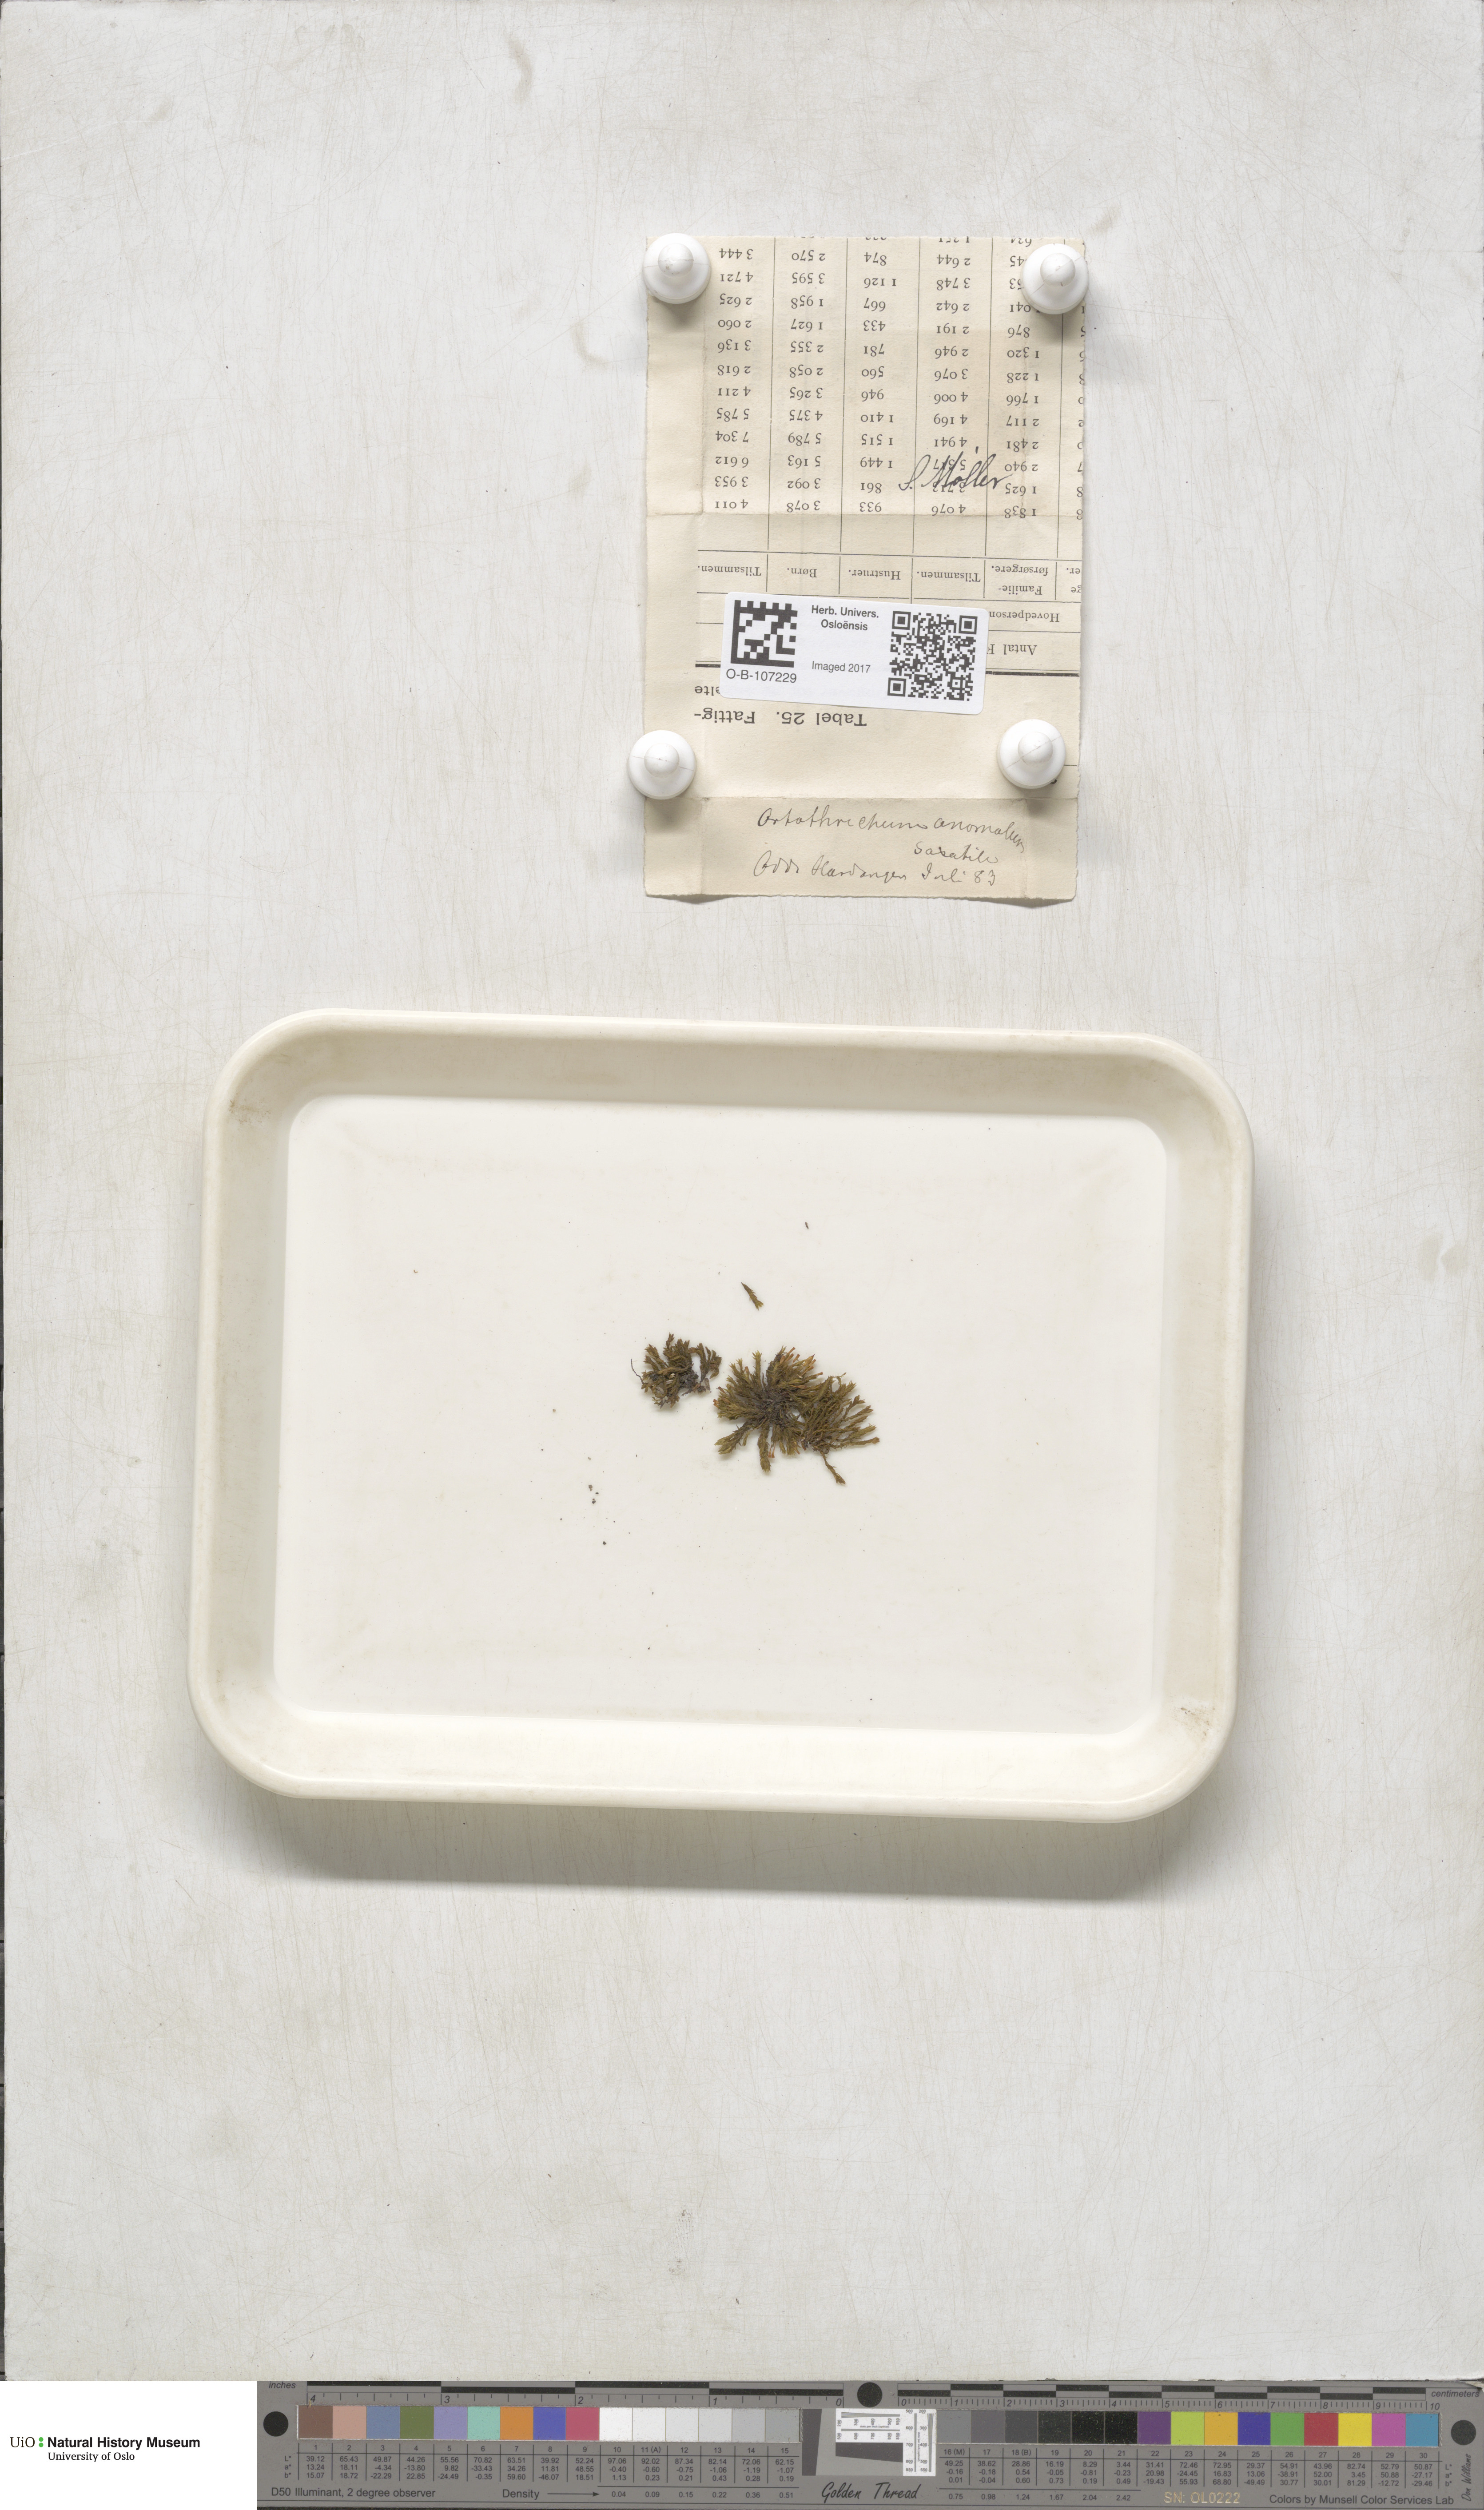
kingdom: Plantae
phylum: Bryophyta
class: Bryopsida
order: Orthotrichales
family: Orthotrichaceae
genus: Orthotrichum
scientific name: Orthotrichum anomalum
